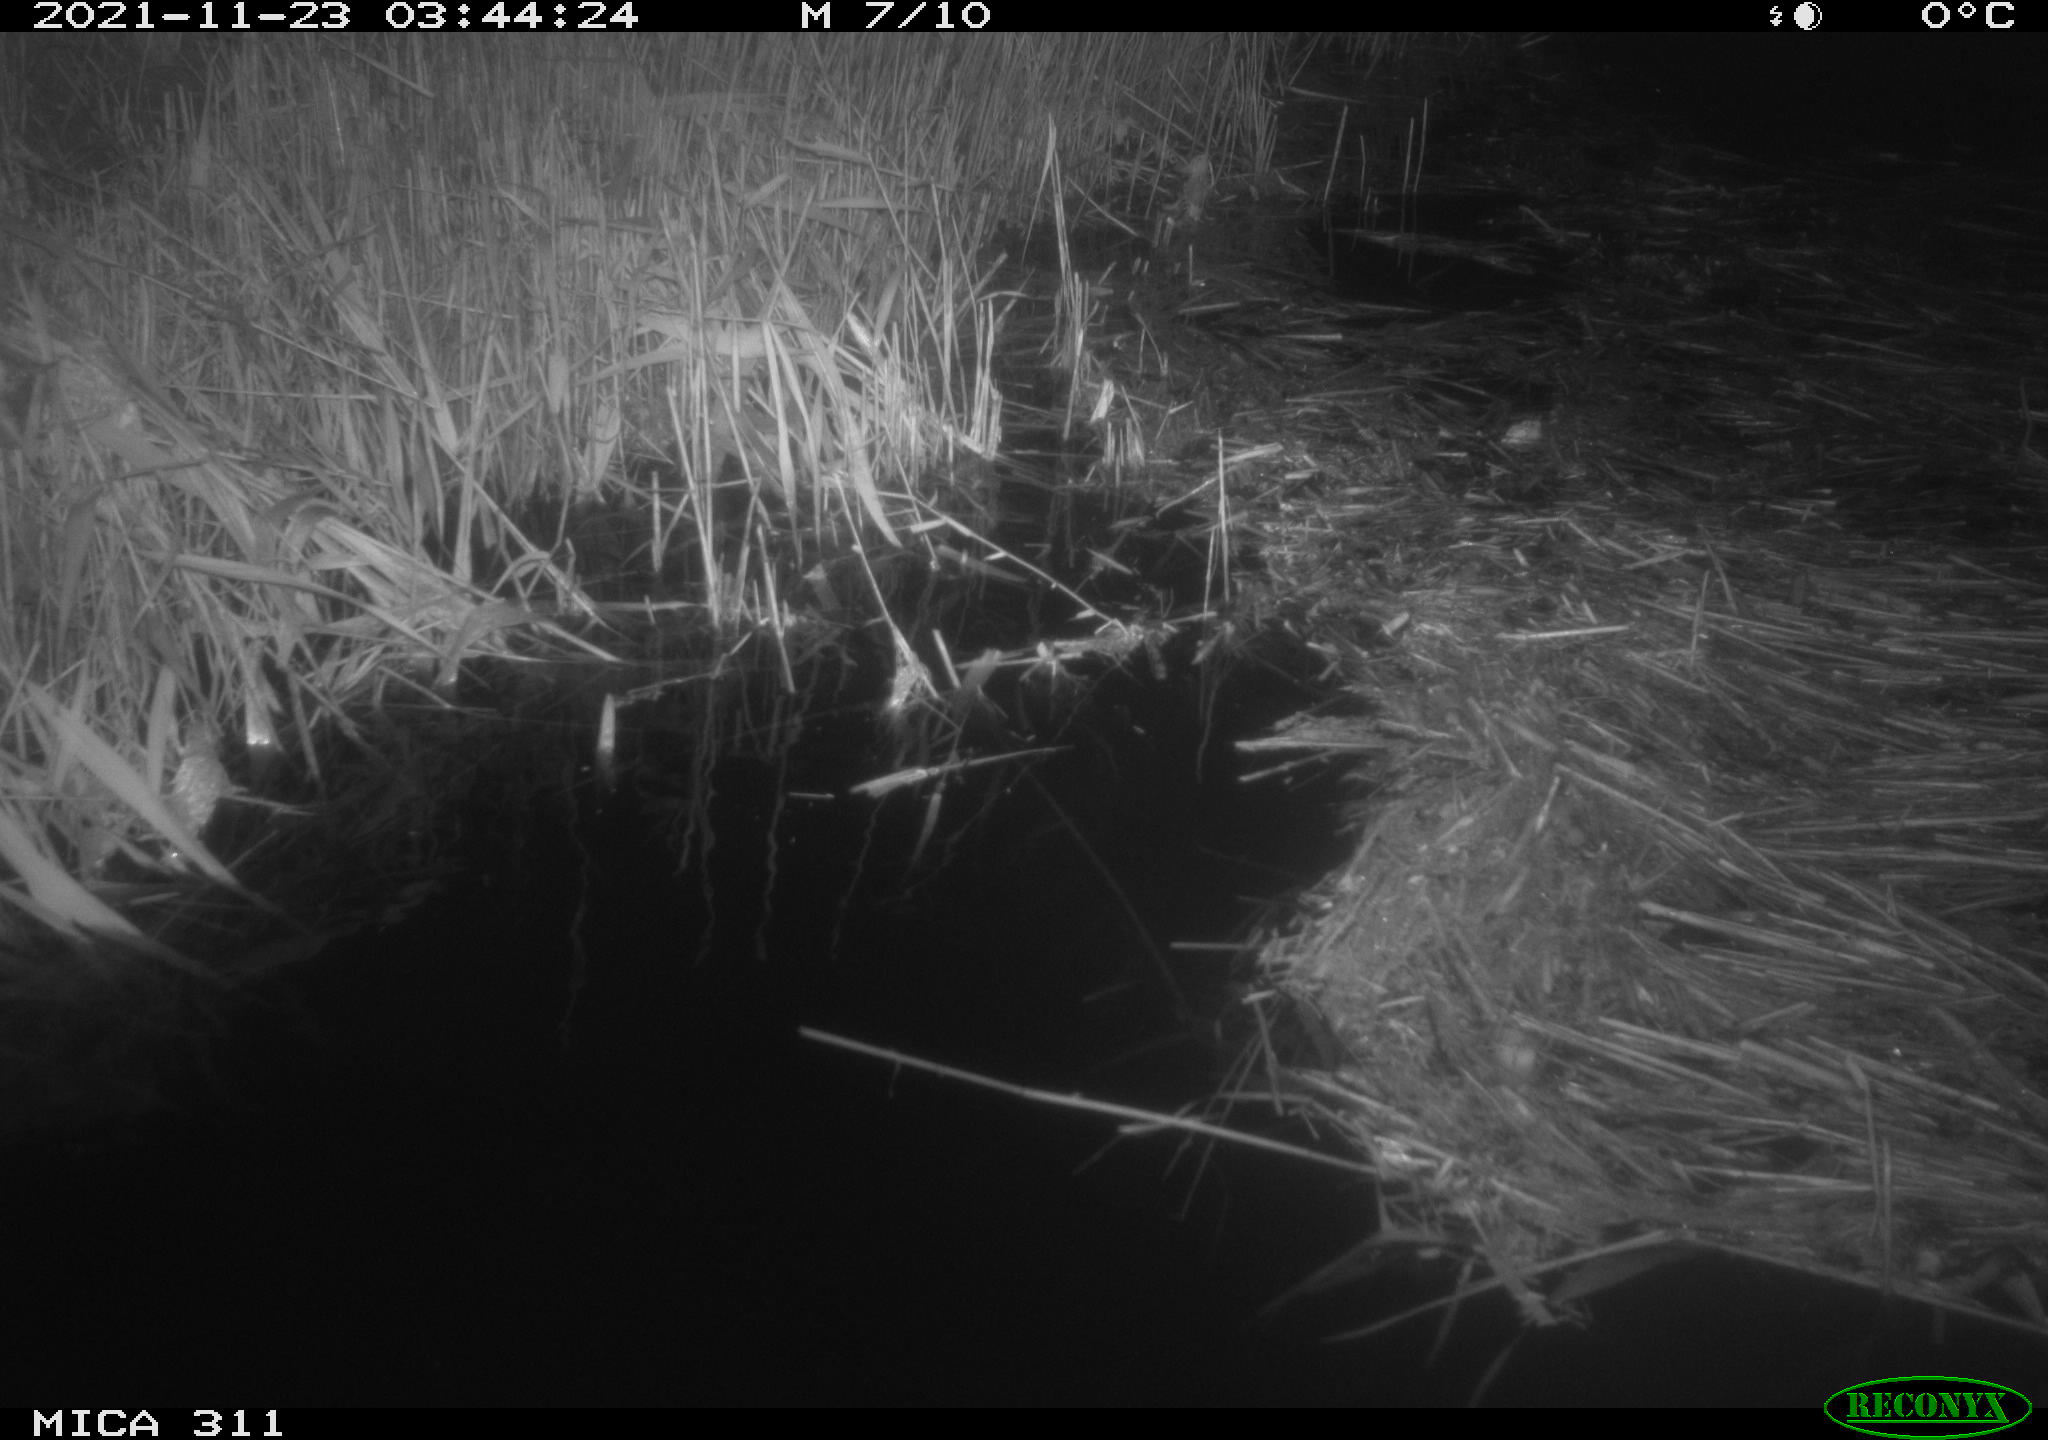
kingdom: Animalia
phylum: Chordata
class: Mammalia
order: Rodentia
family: Muridae
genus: Rattus
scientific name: Rattus norvegicus
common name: Brown rat
